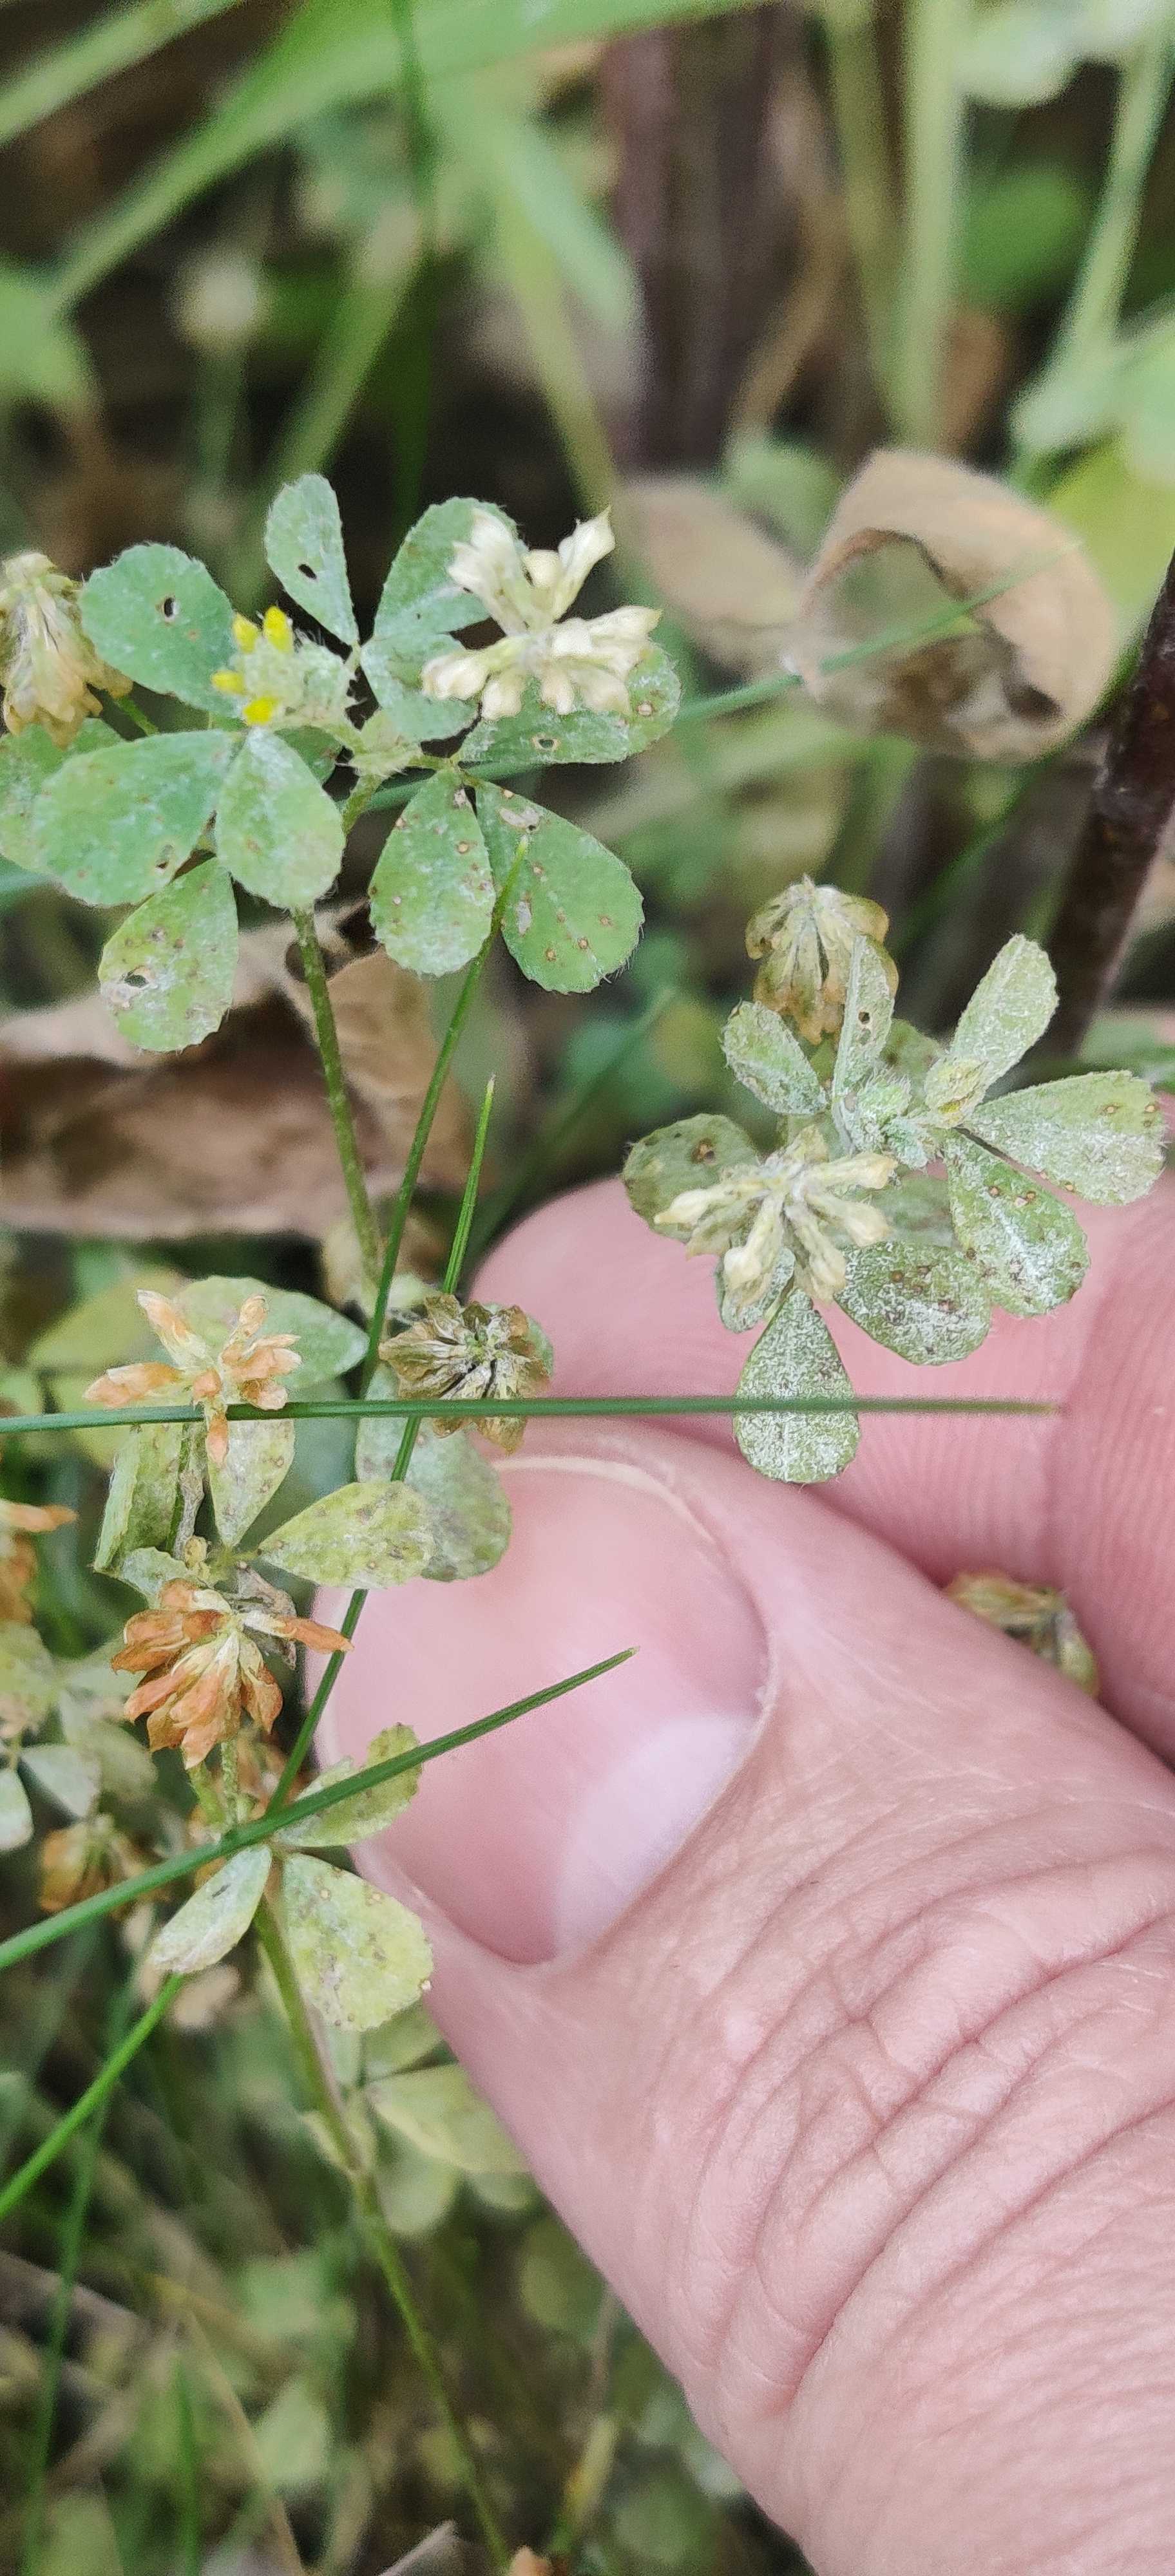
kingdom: Fungi
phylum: Ascomycota
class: Leotiomycetes
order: Helotiales
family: Erysiphaceae
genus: Erysiphe
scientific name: Erysiphe
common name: meldug
